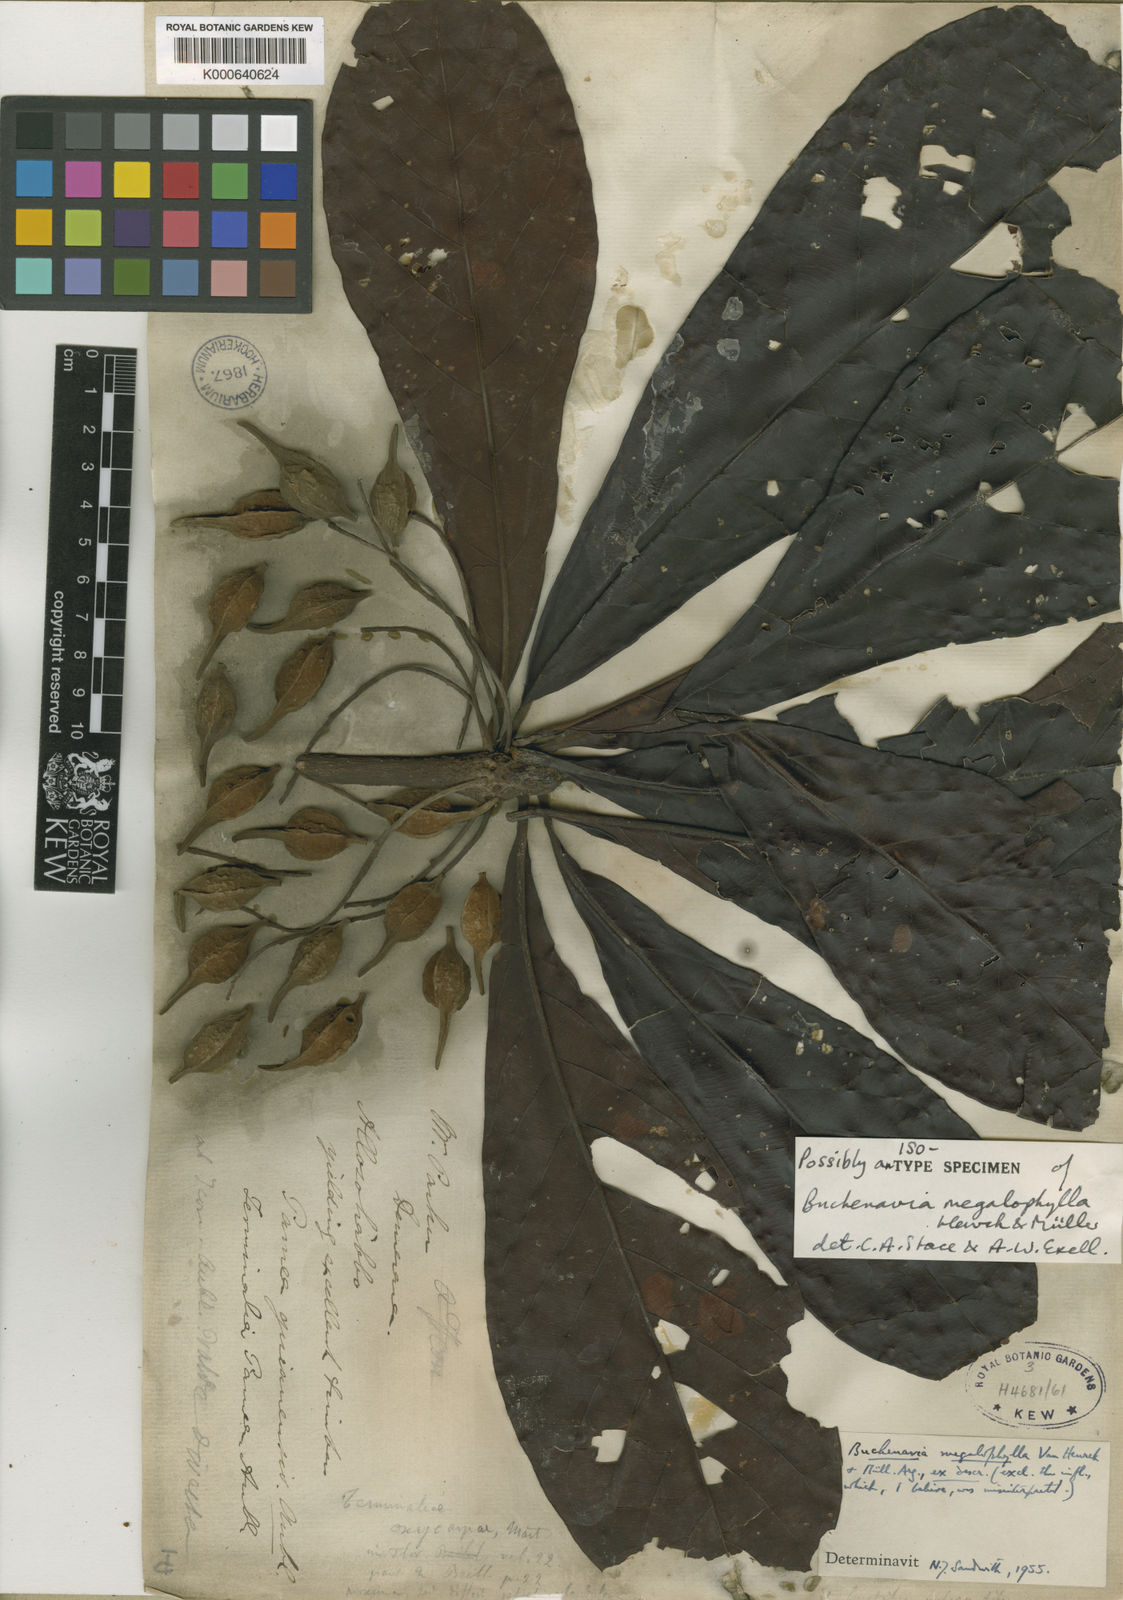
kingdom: Plantae
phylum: Tracheophyta
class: Magnoliopsida
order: Myrtales
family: Combretaceae
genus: Terminalia
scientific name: Terminalia
